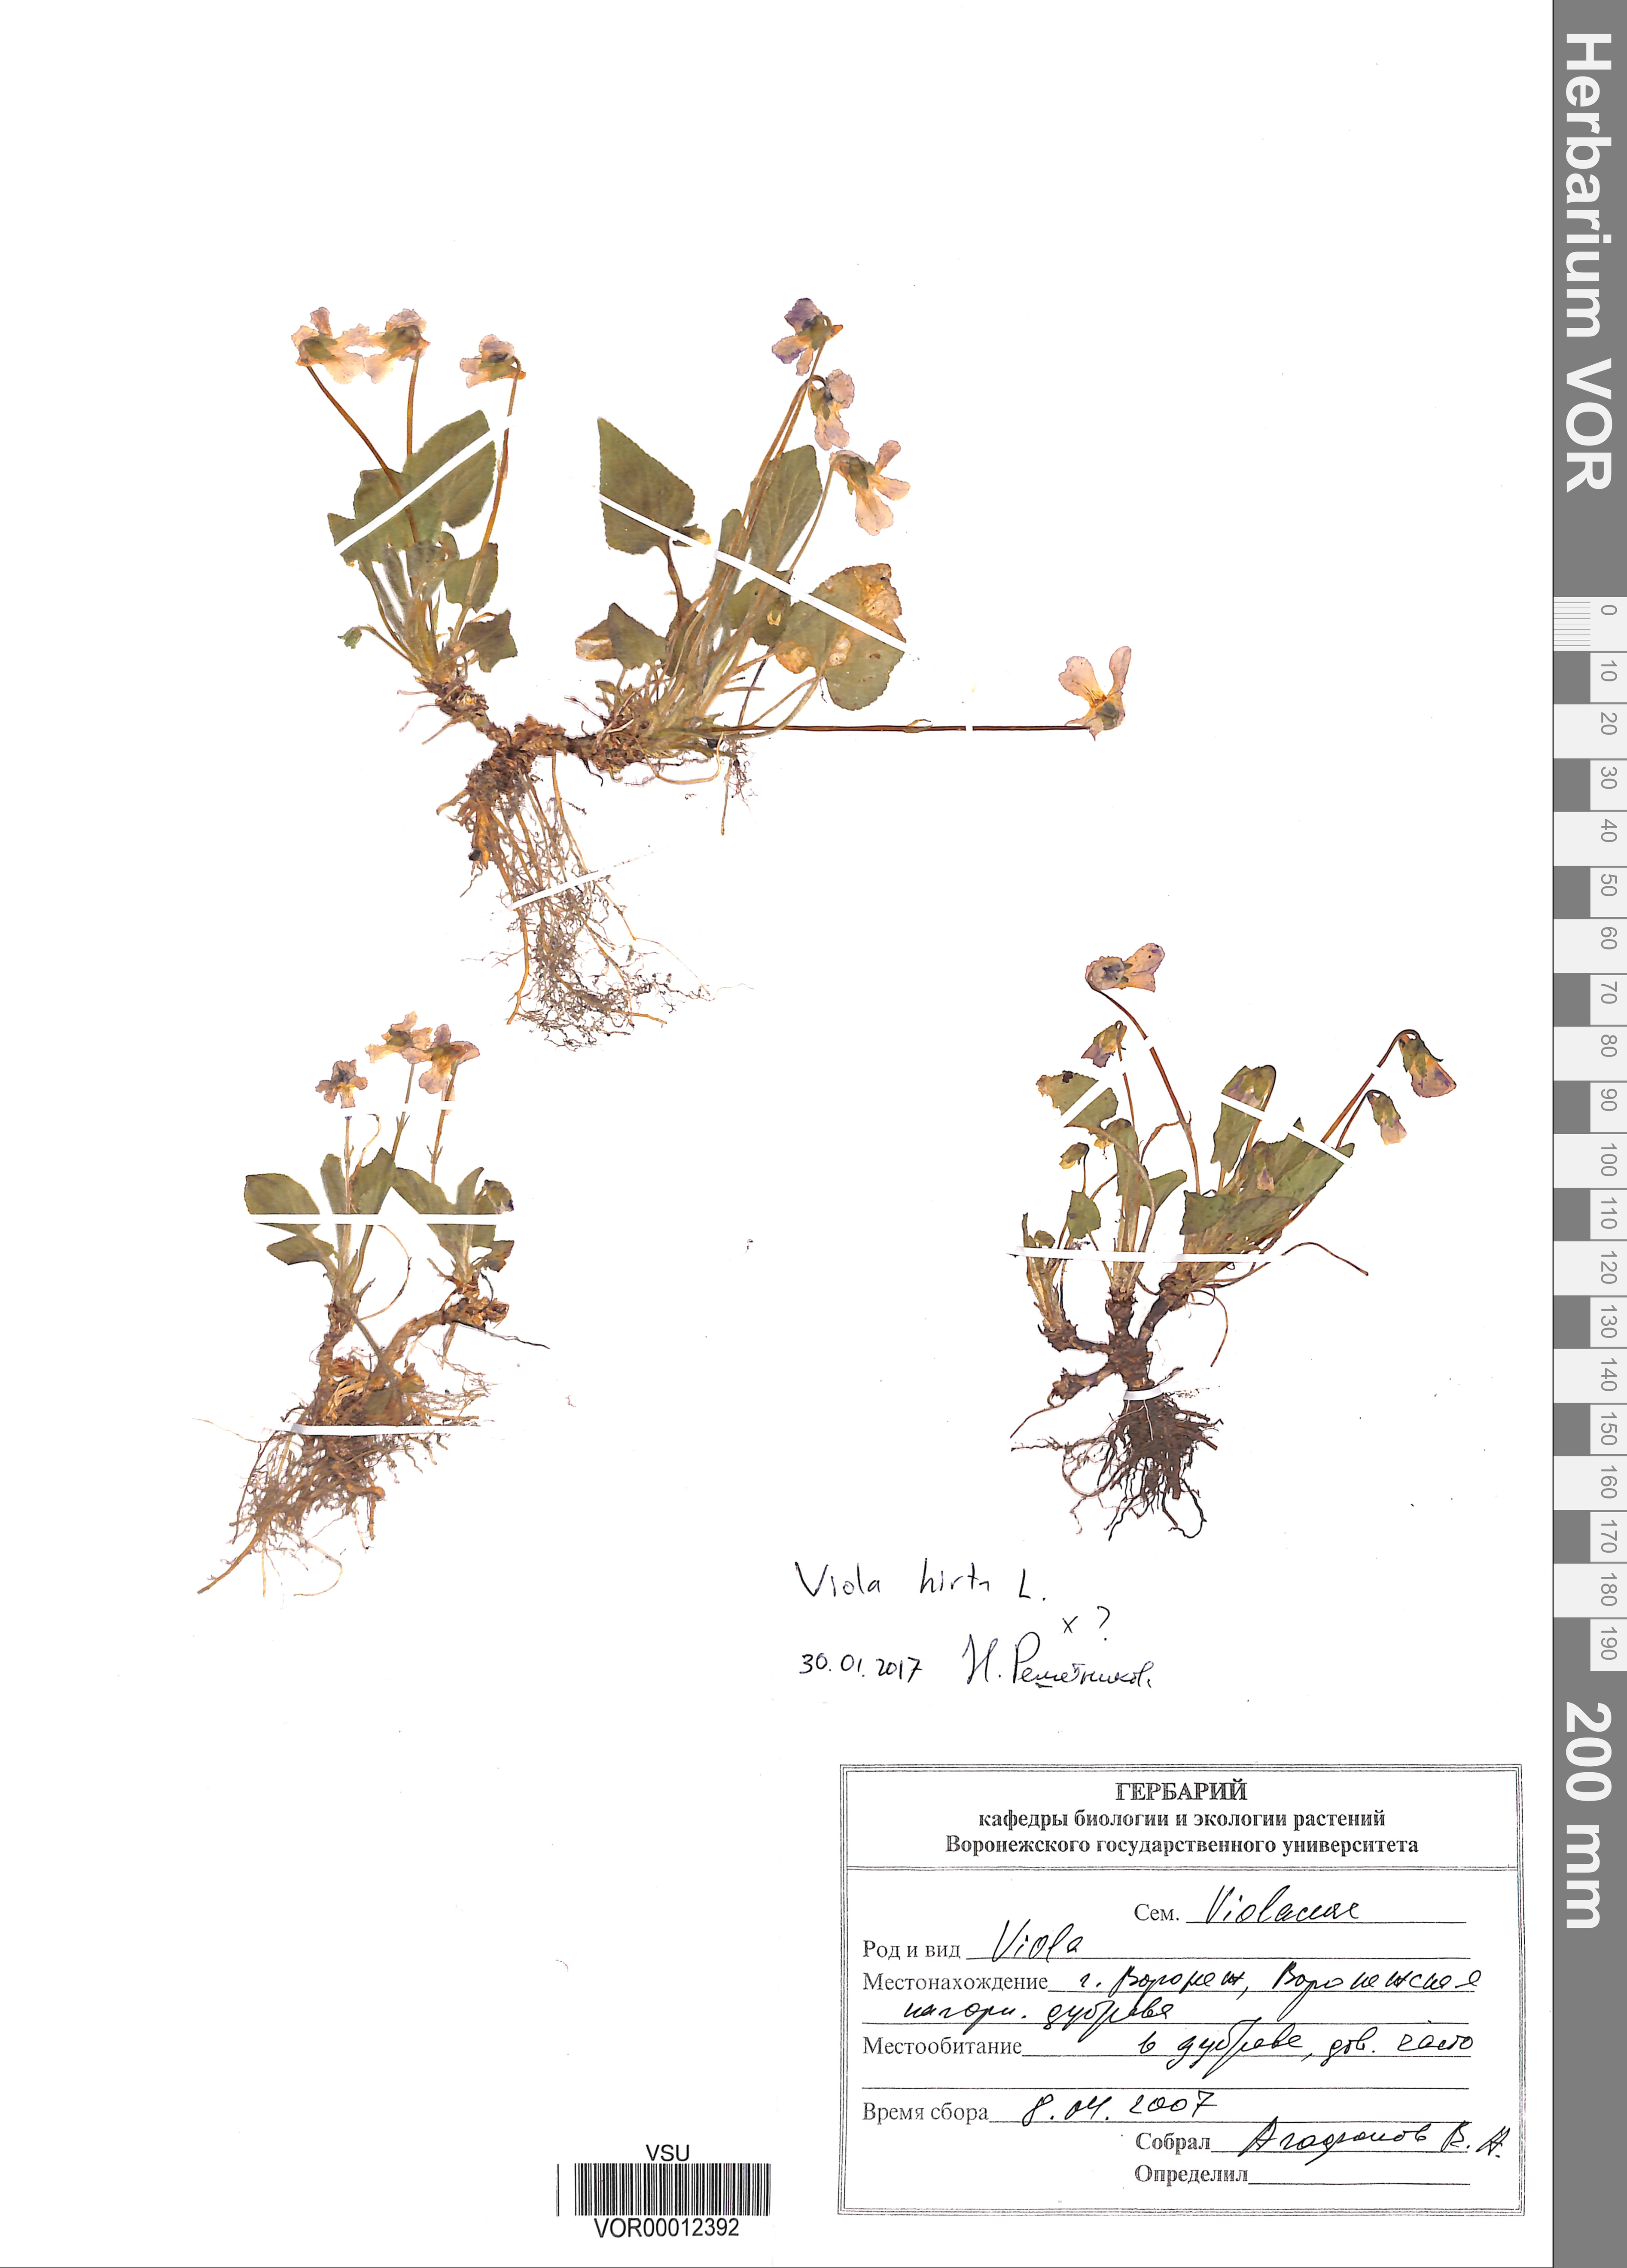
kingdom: Plantae
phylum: Tracheophyta
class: Magnoliopsida
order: Malpighiales
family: Violaceae
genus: Viola
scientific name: Viola hirta
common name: Hairy violet
